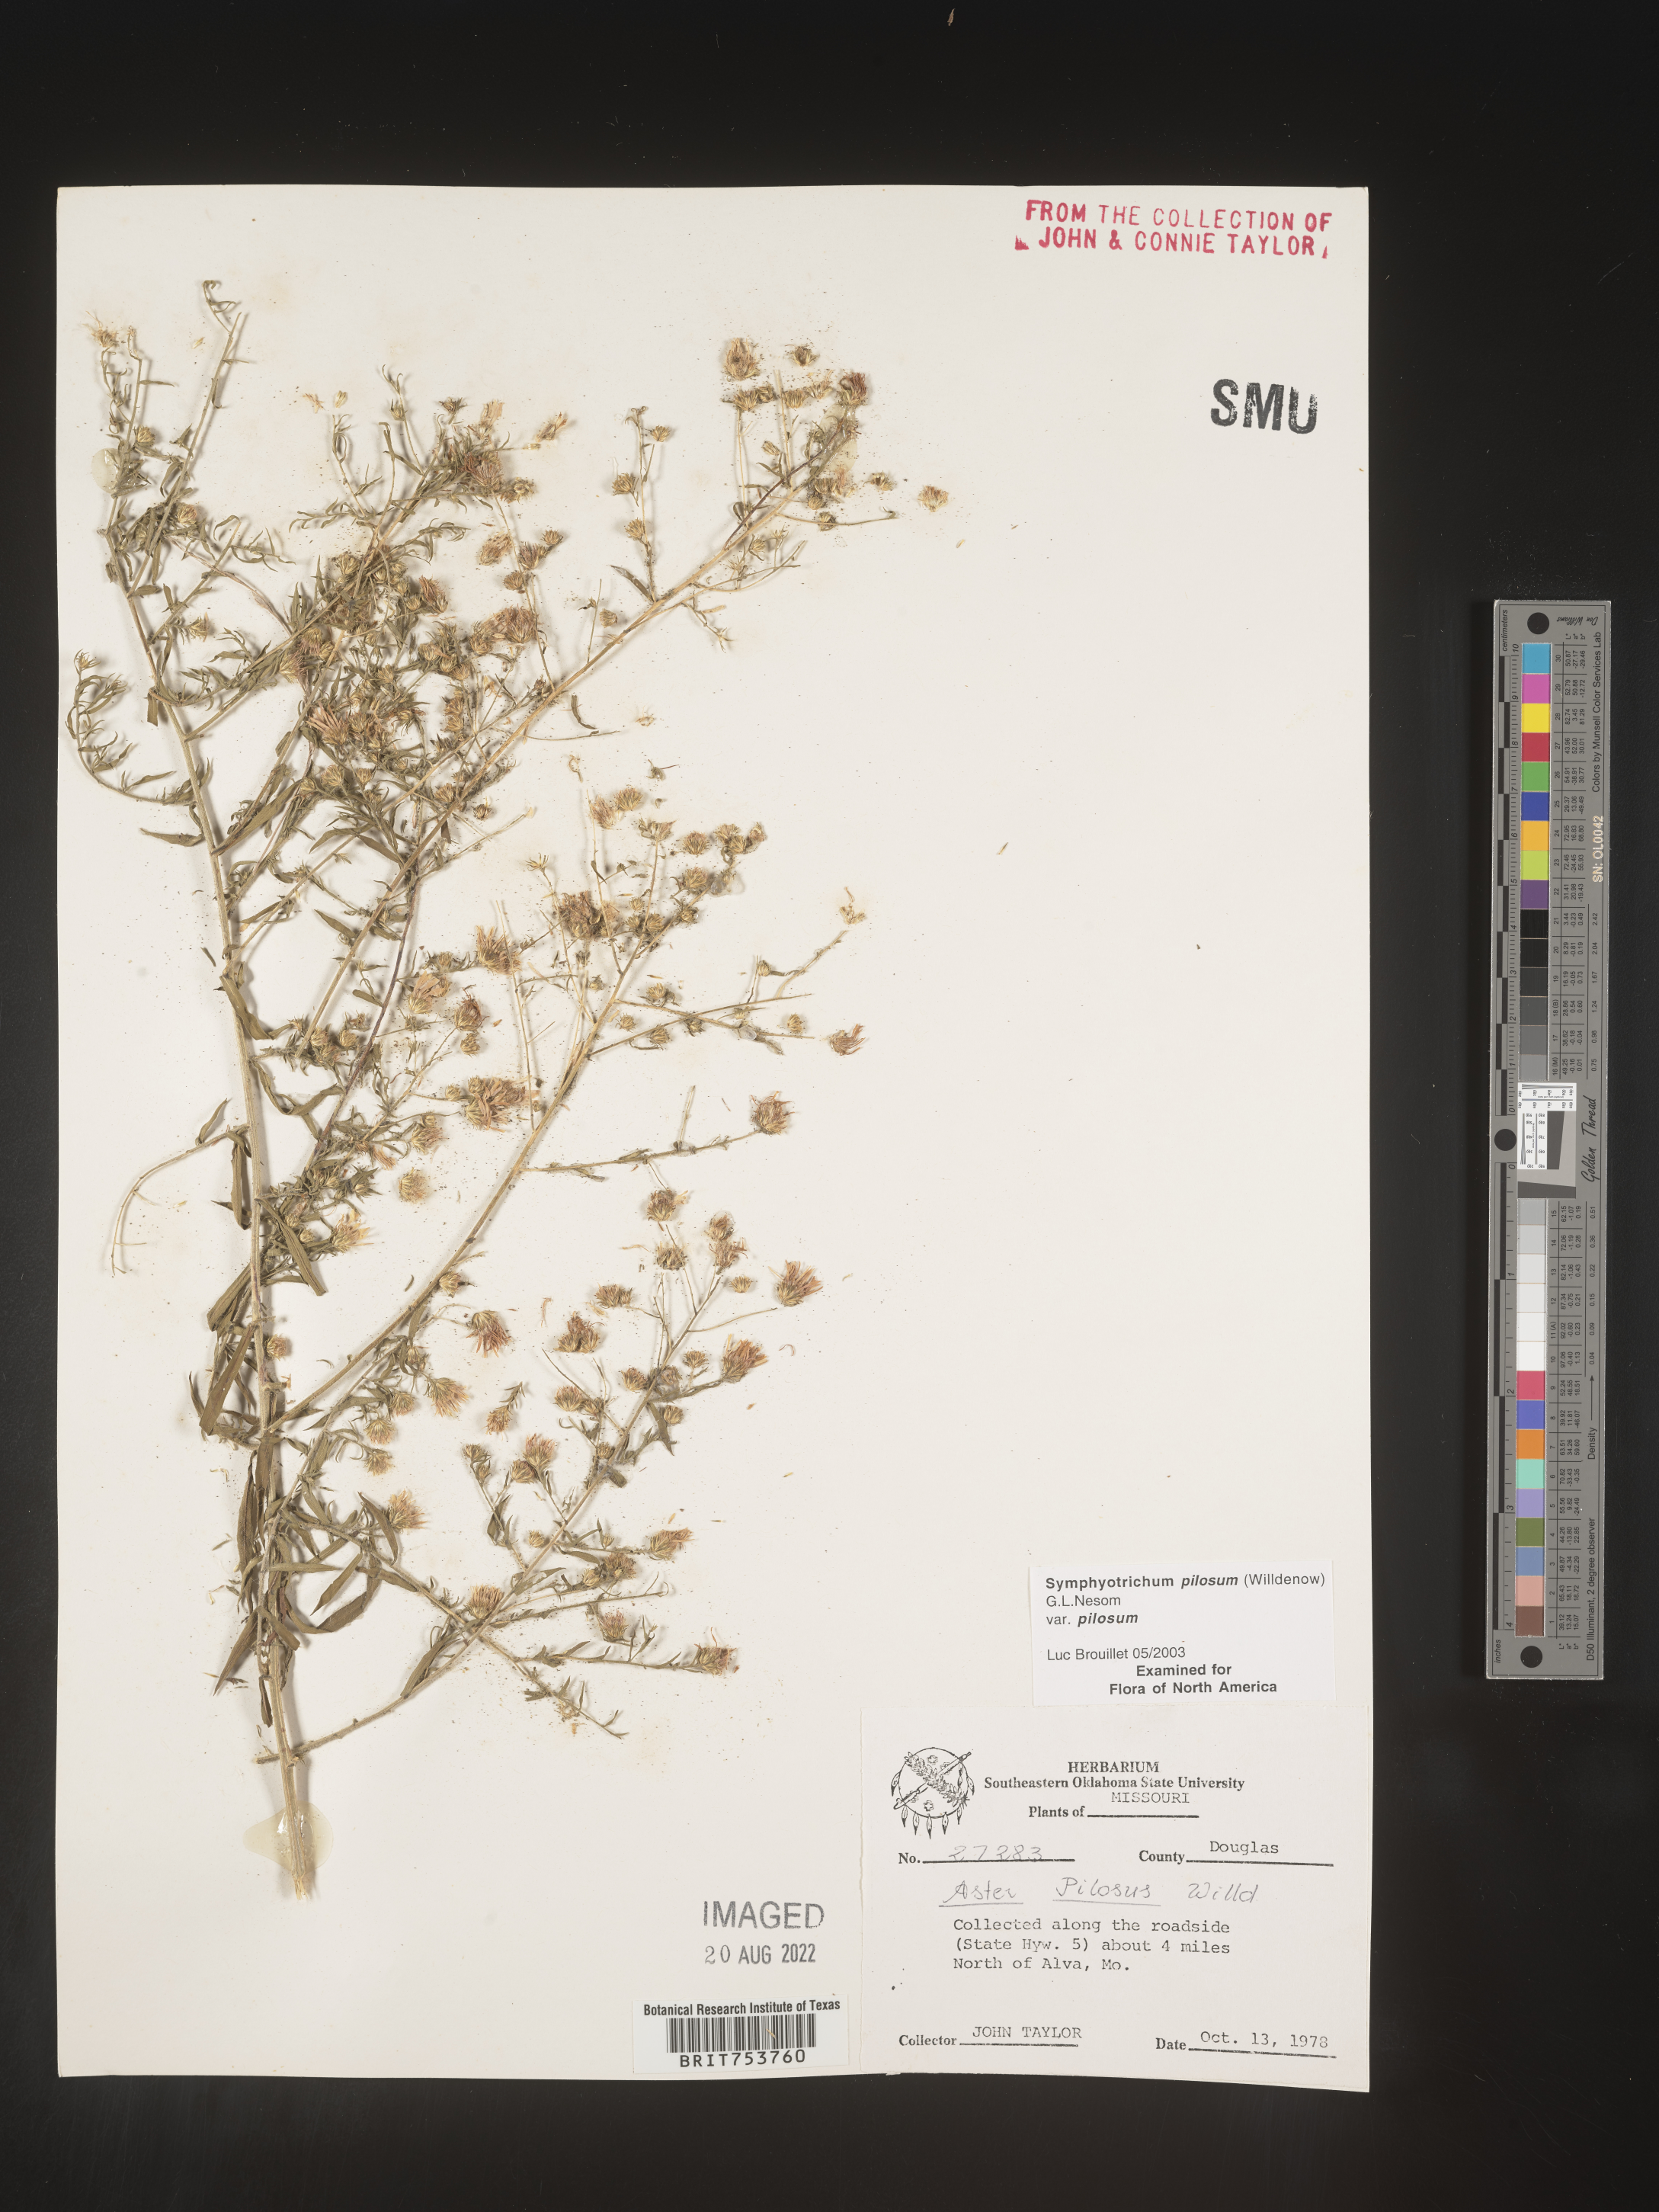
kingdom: Plantae
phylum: Tracheophyta
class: Magnoliopsida
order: Asterales
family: Asteraceae
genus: Symphyotrichum
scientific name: Symphyotrichum pilosum
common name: Awl aster
